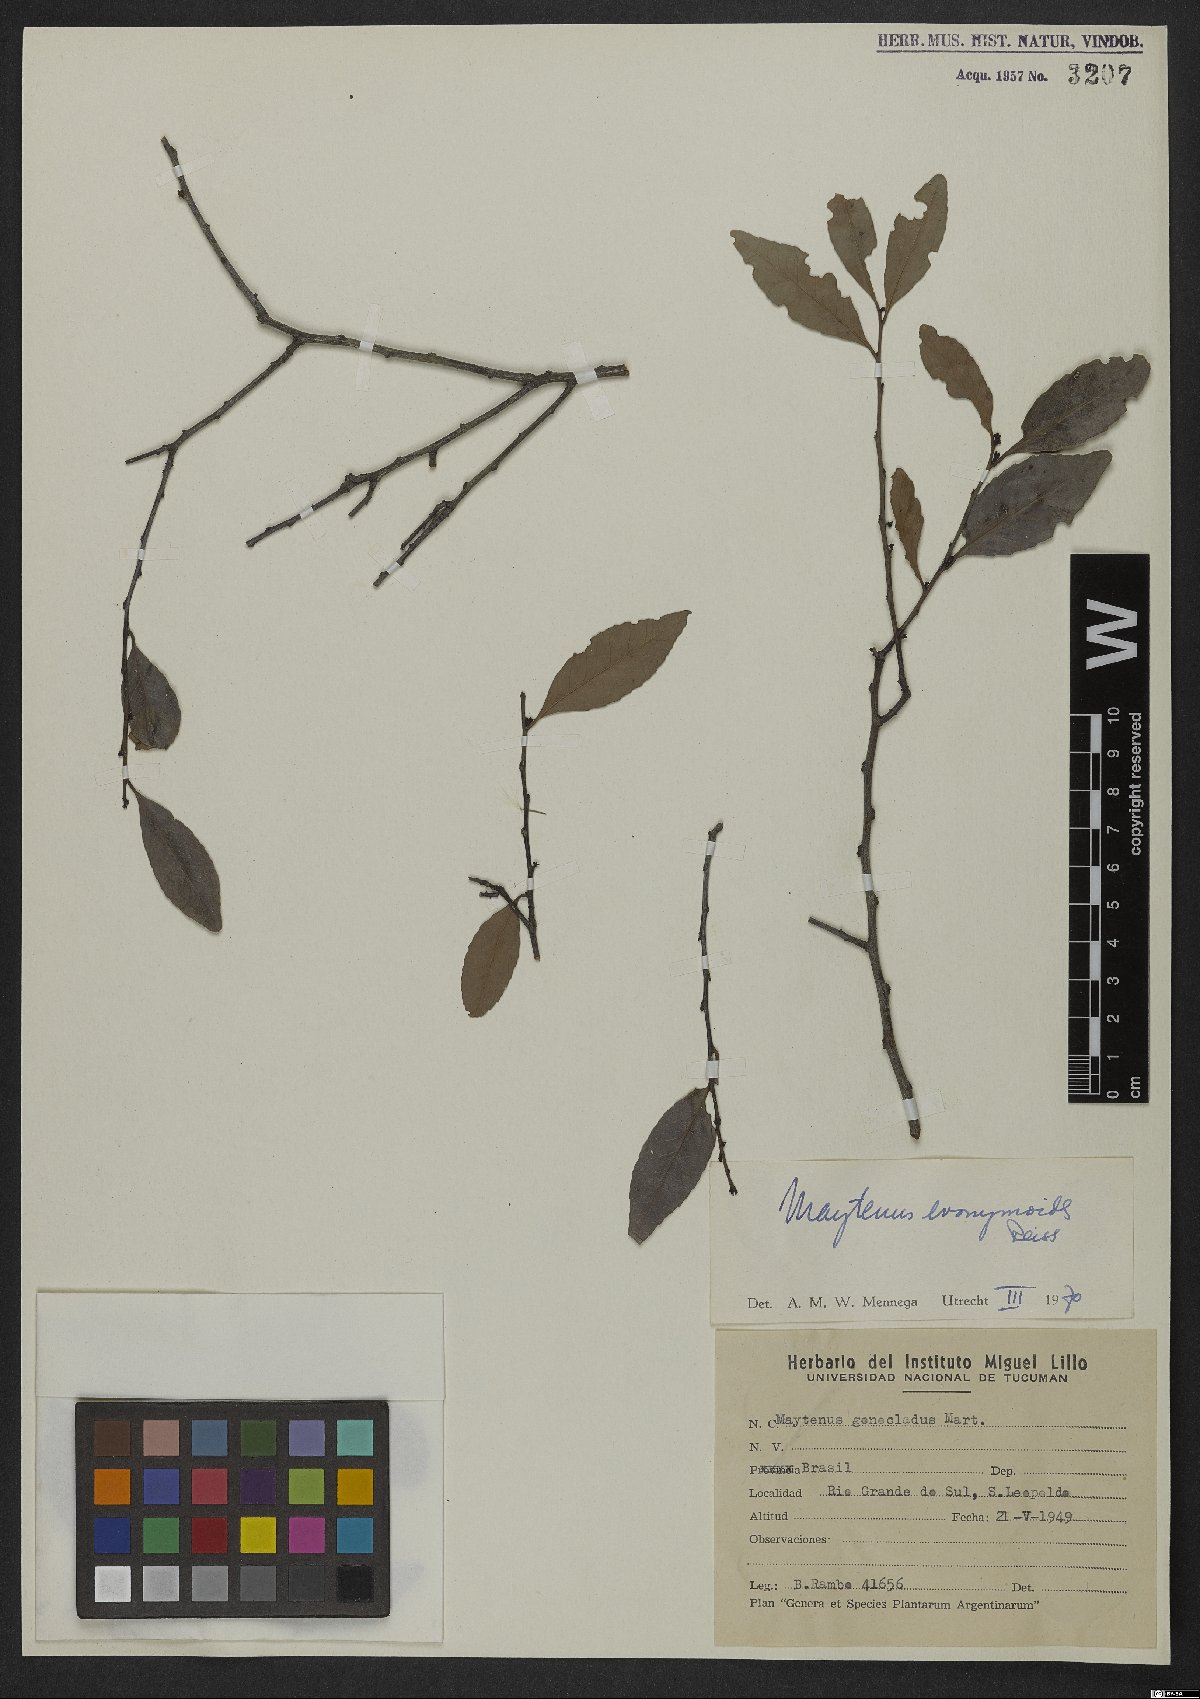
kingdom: Plantae
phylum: Tracheophyta
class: Magnoliopsida
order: Celastrales
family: Celastraceae
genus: Monteverdia
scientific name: Monteverdia evonymoides
